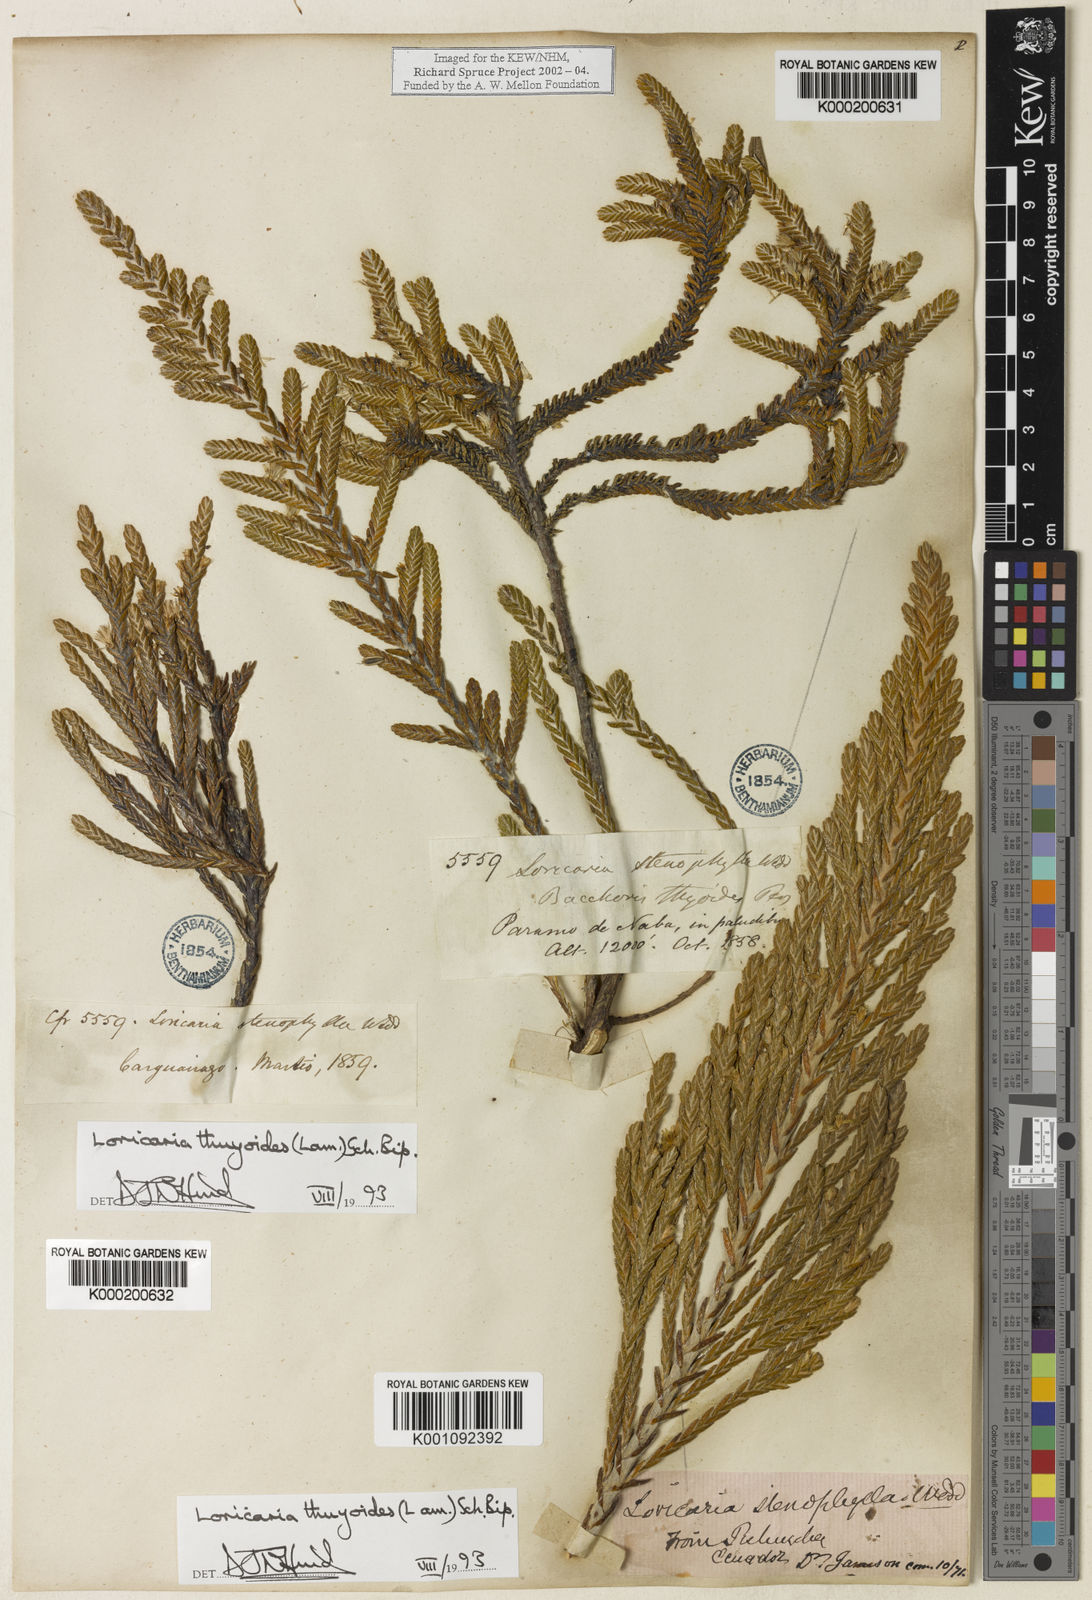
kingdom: Plantae
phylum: Tracheophyta
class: Magnoliopsida
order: Asterales
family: Asteraceae
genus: Andicolea
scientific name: Andicolea thuyoides
